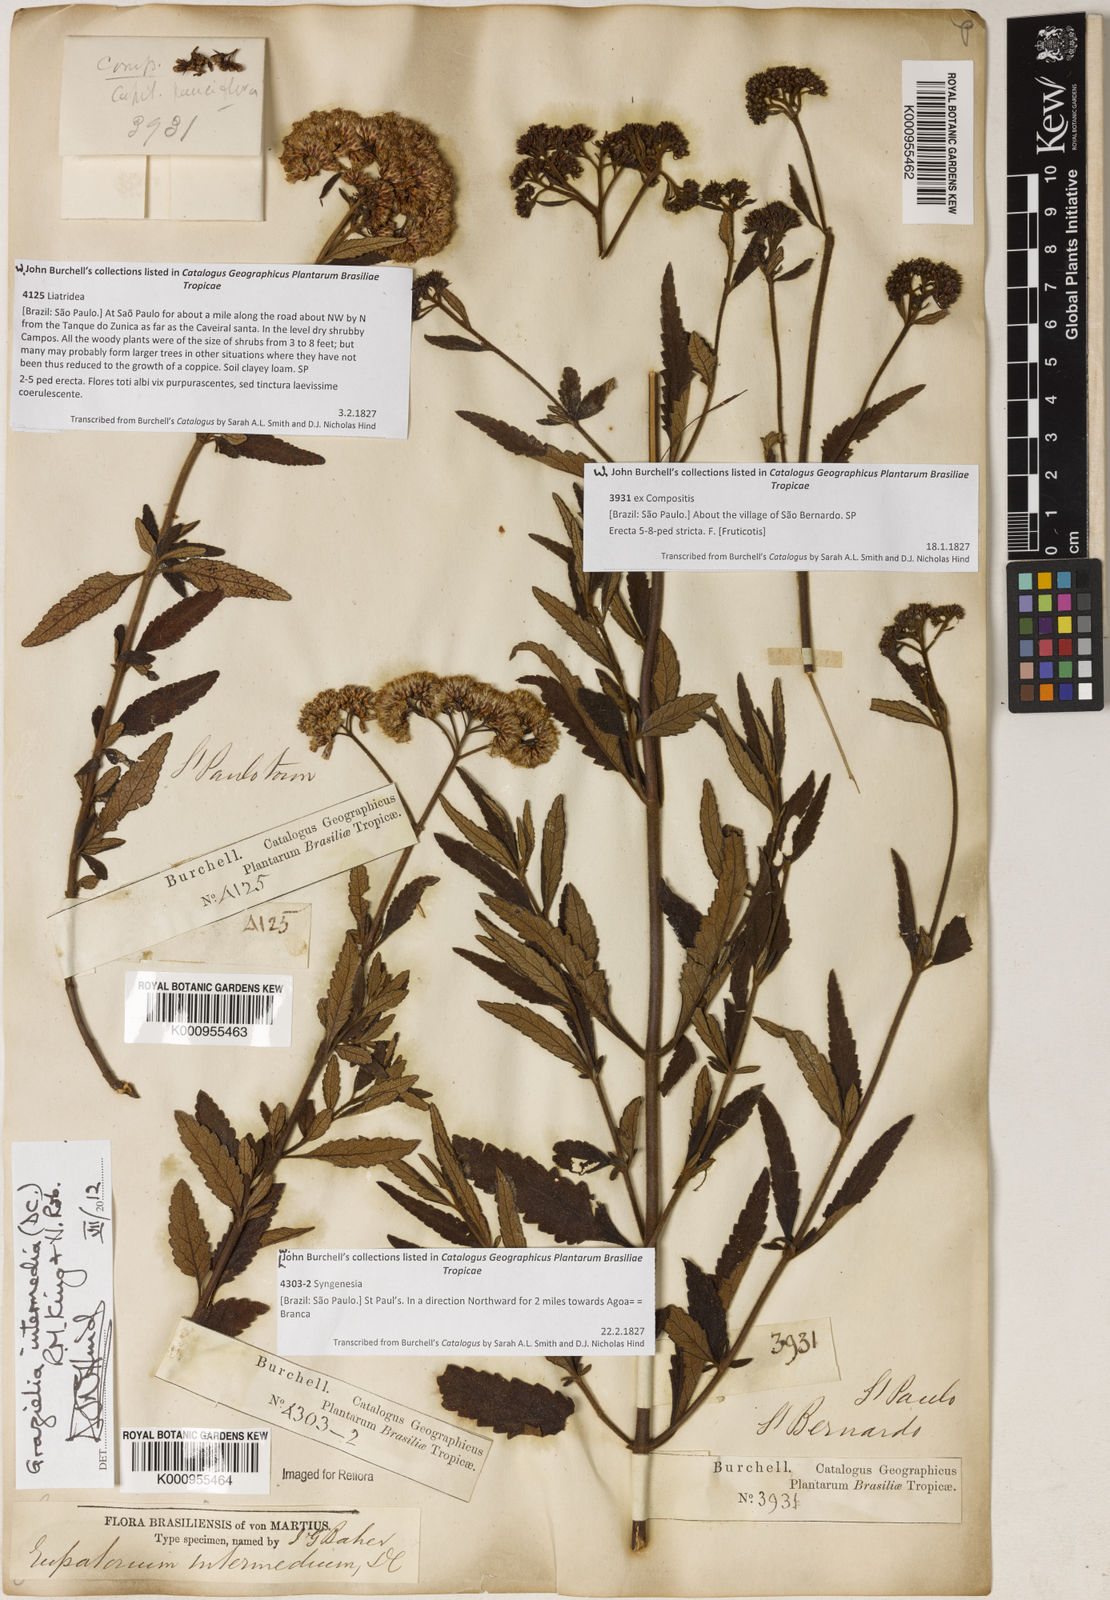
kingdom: Plantae
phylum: Tracheophyta
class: Magnoliopsida
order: Asterales
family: Asteraceae
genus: Grazielia
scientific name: Grazielia intermedia
